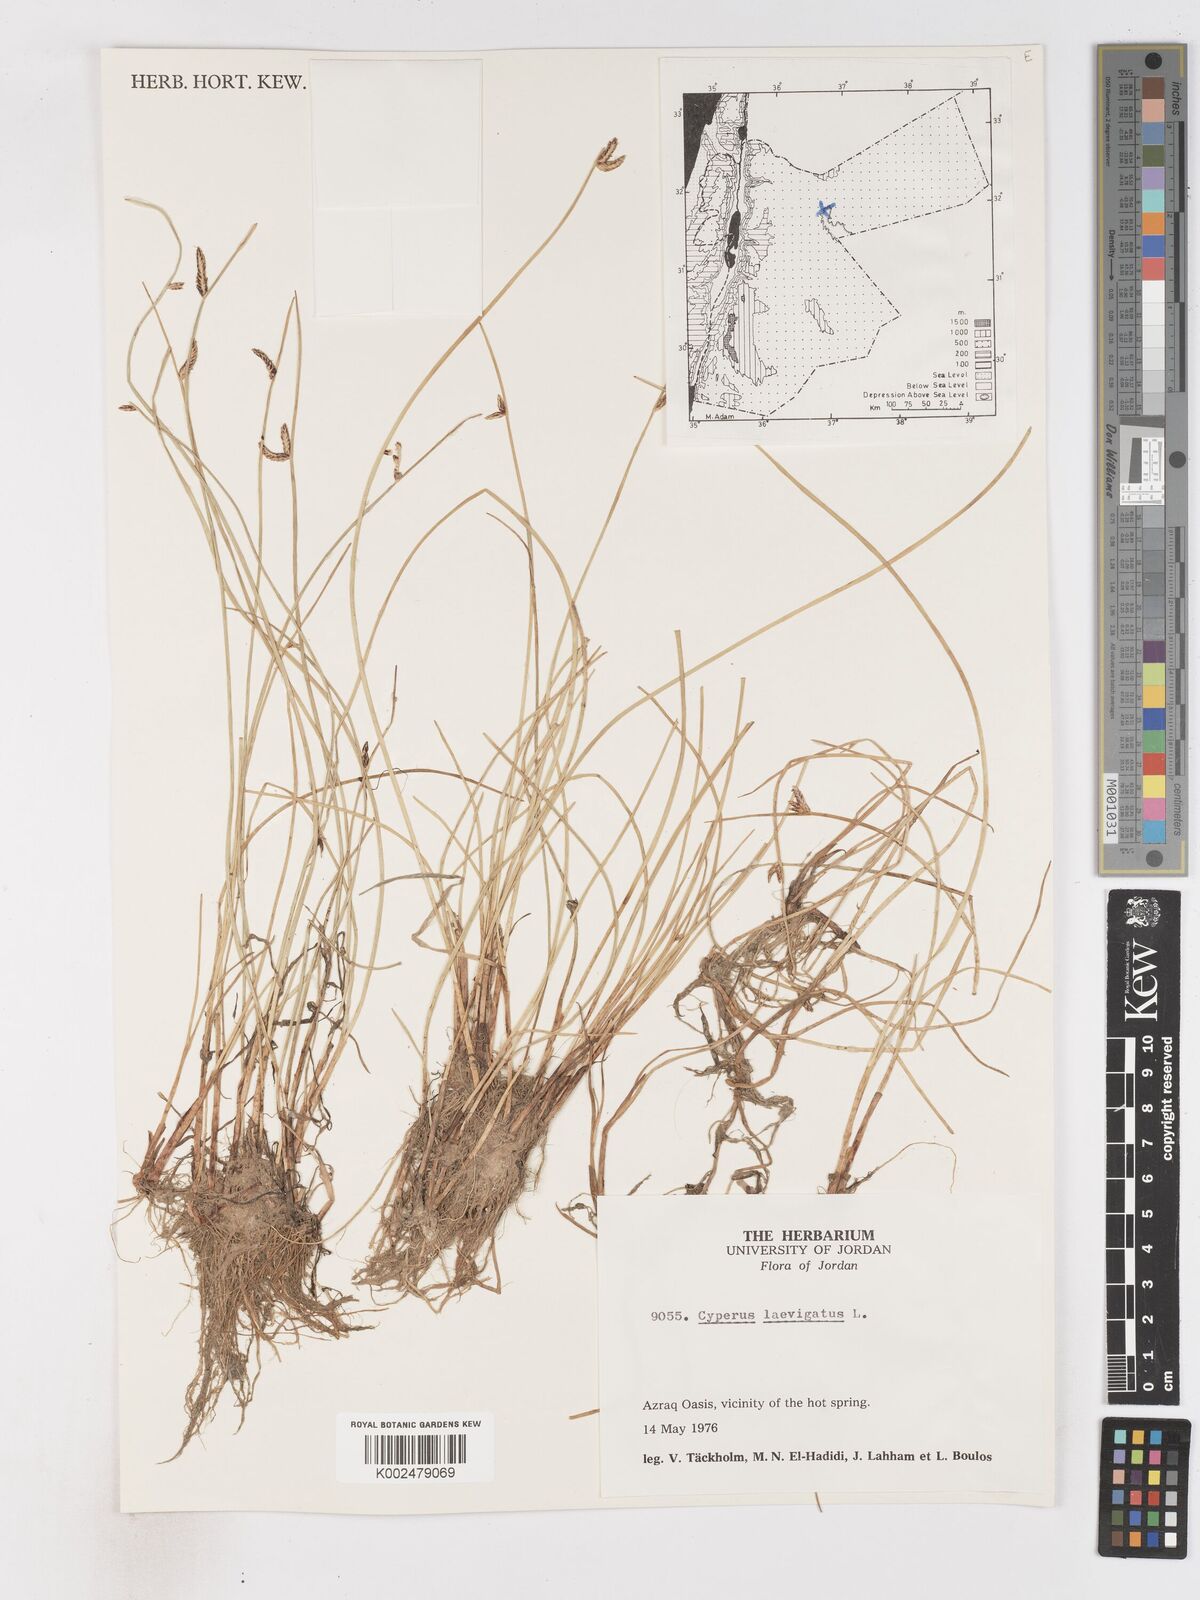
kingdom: Plantae
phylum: Tracheophyta
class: Liliopsida
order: Poales
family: Cyperaceae
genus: Cyperus
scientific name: Cyperus laevigatus
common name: Smooth flat sedge
